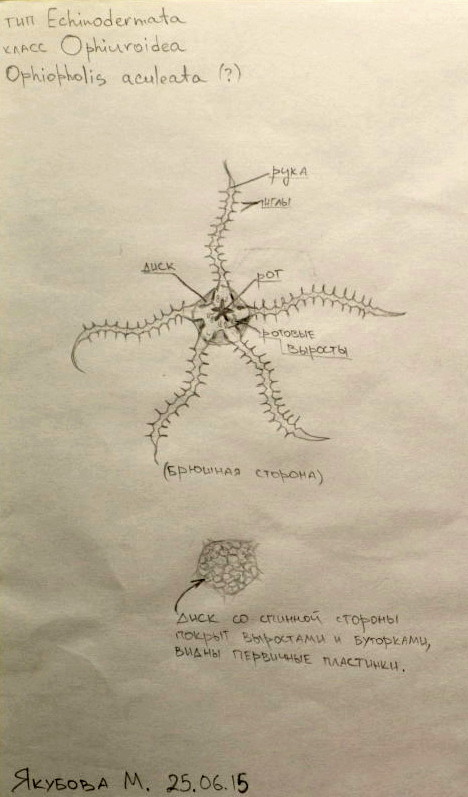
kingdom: Animalia
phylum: Echinodermata
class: Ophiuroidea
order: Amphilepidida
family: Ophiopholidae
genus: Ophiopholis
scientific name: Ophiopholis aculeata
